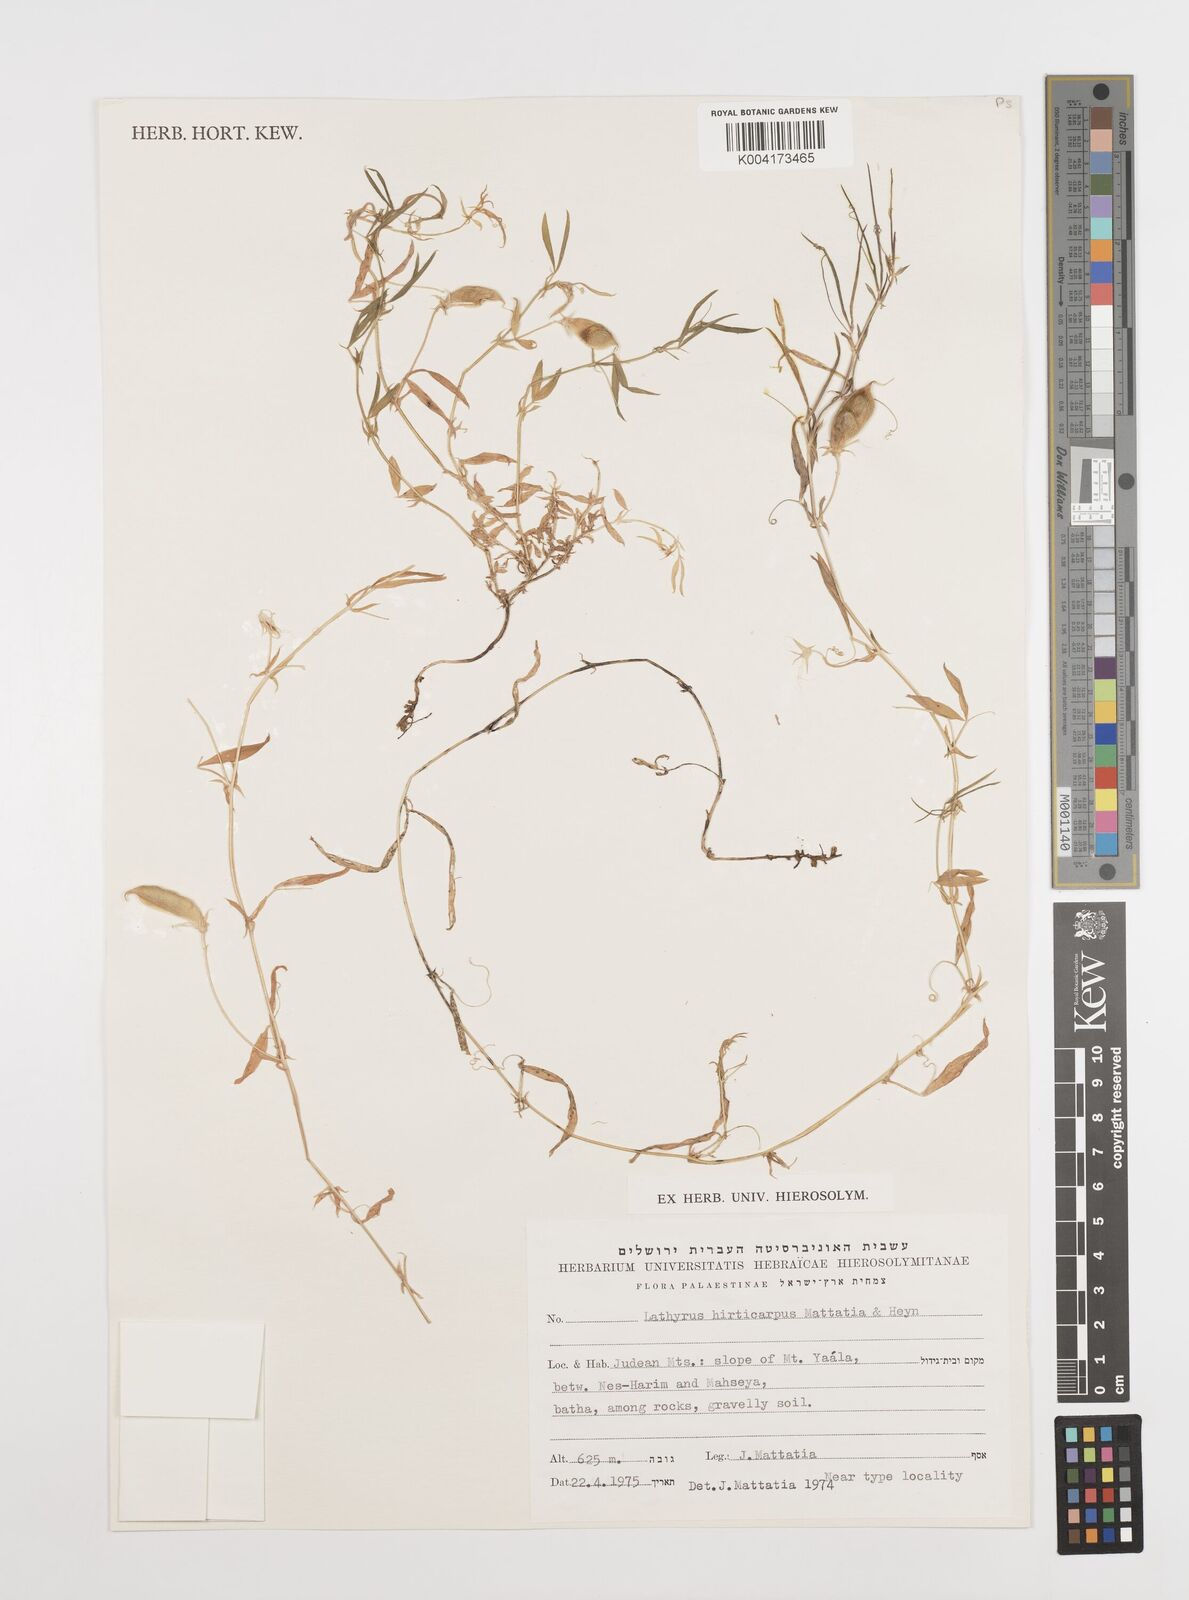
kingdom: Plantae
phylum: Tracheophyta
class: Magnoliopsida
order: Fabales
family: Fabaceae
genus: Lathyrus
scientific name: Lathyrus hirticarpus
